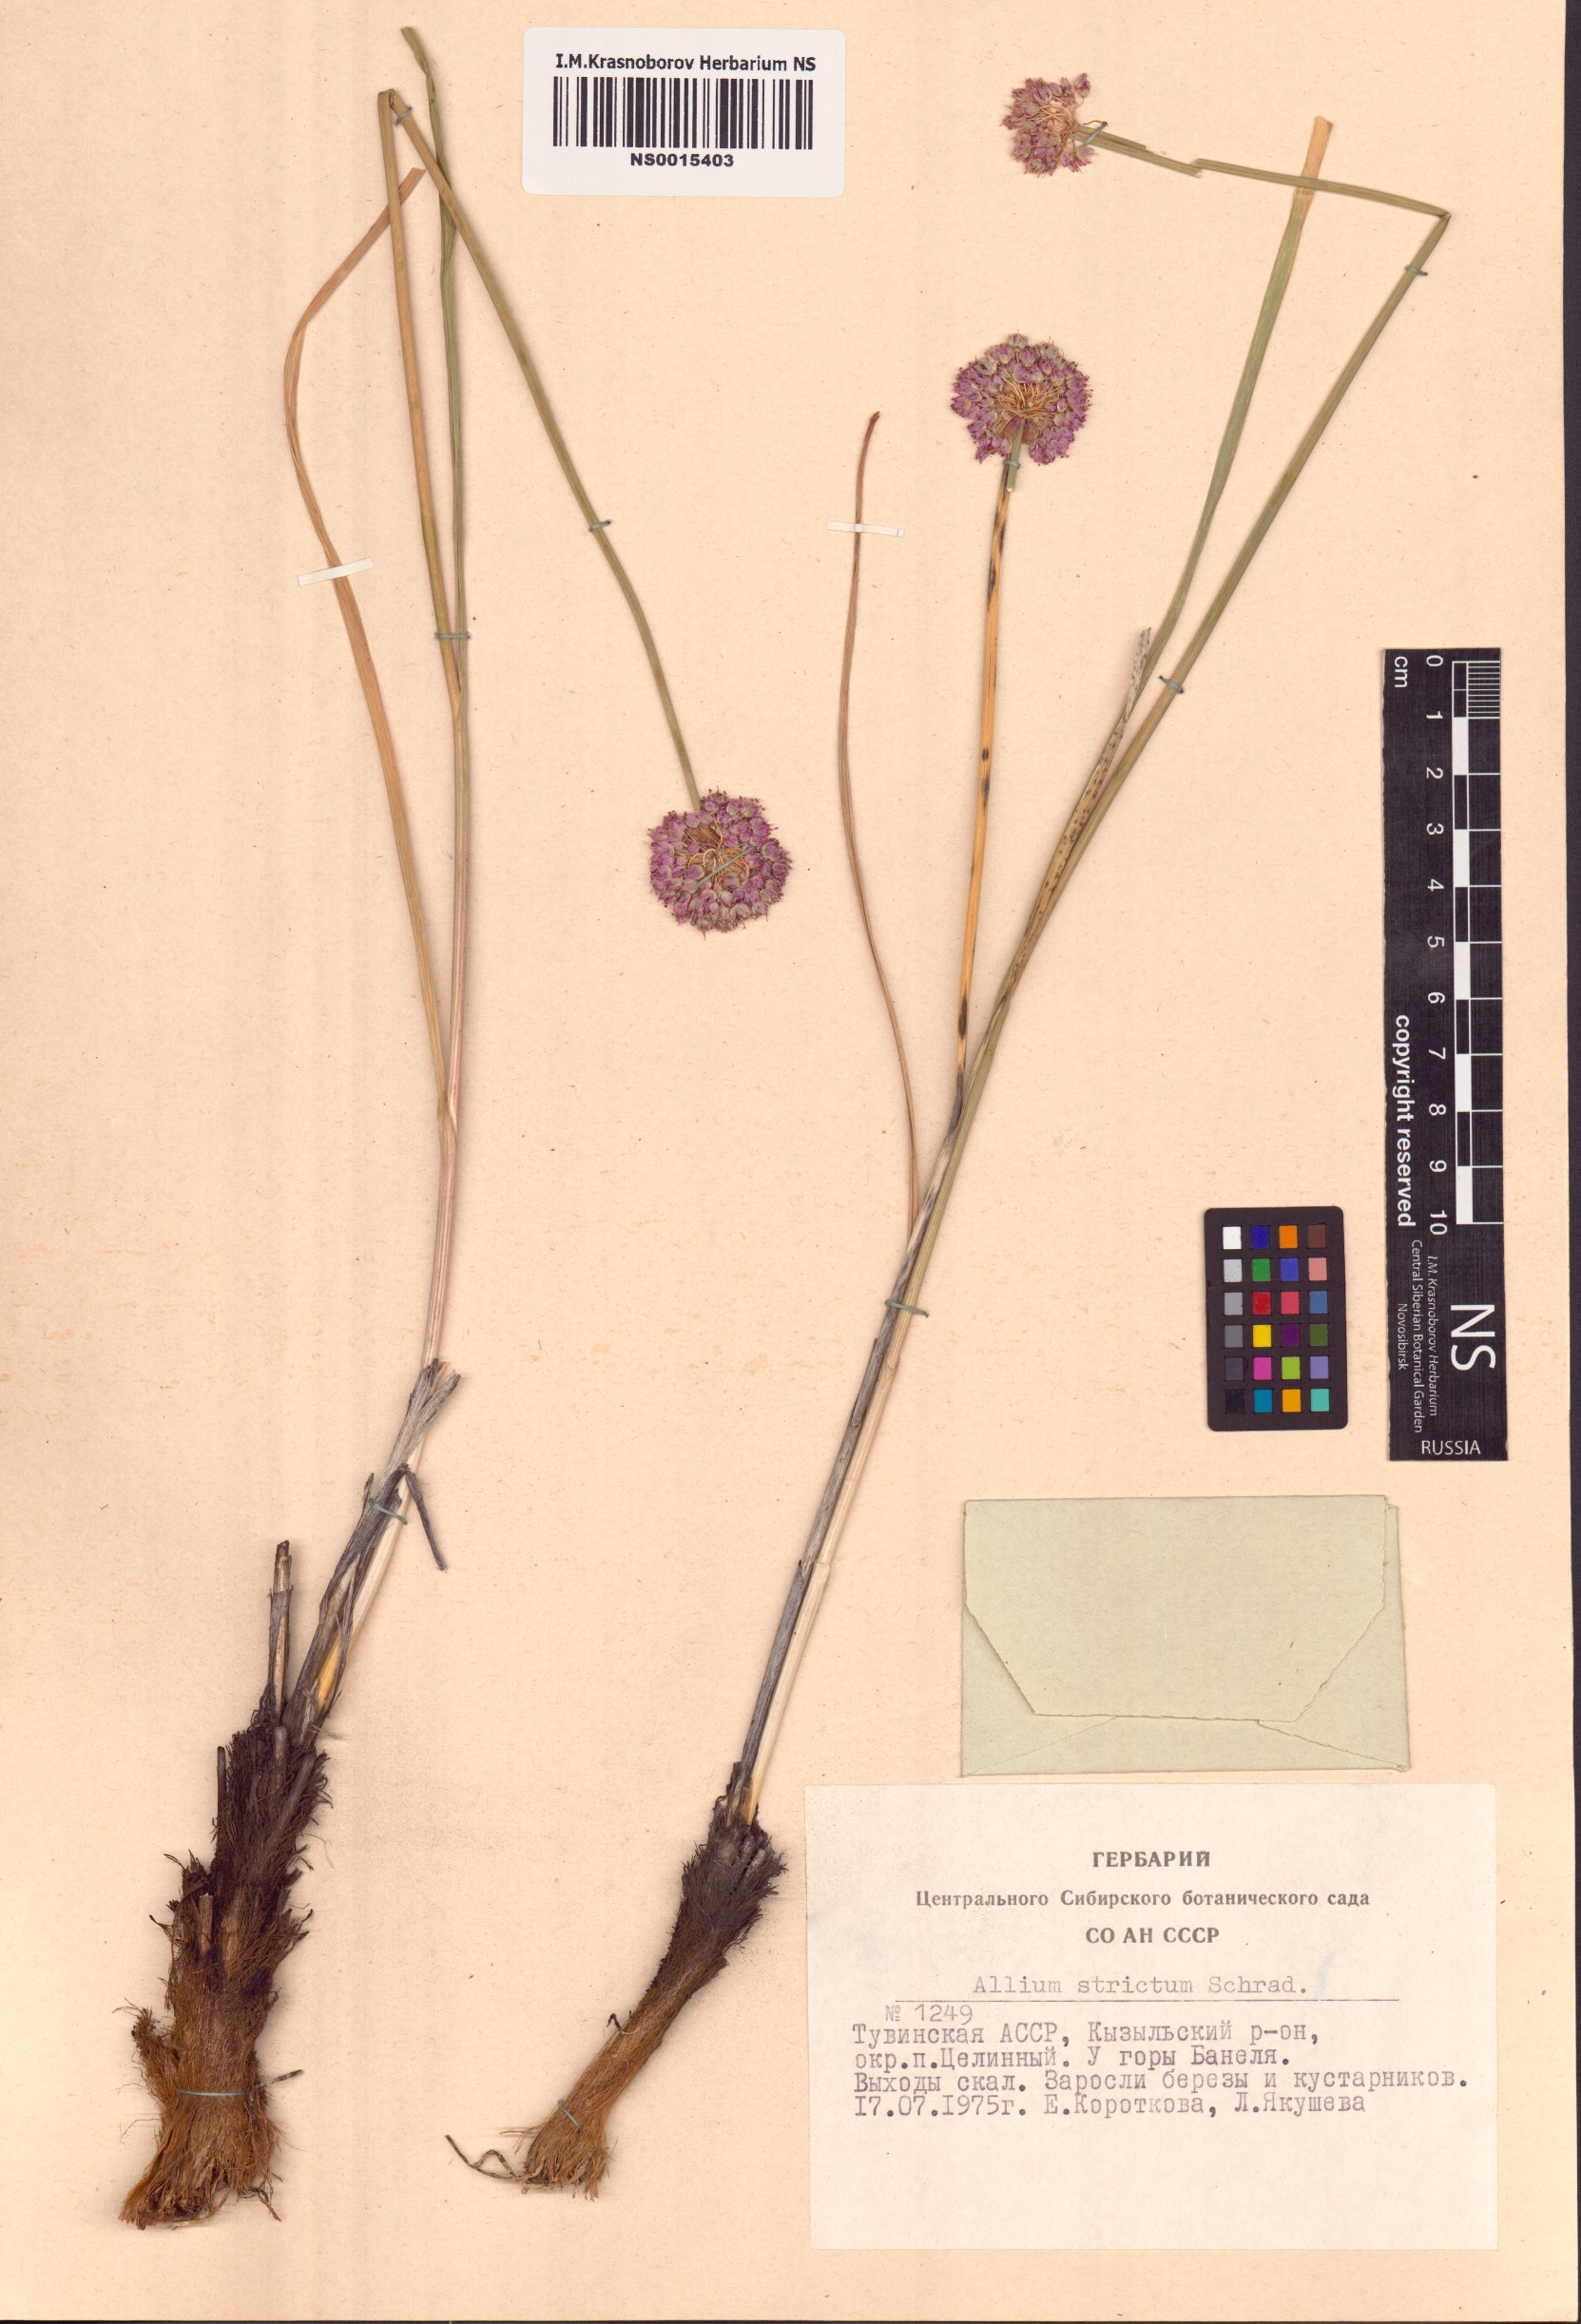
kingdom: Plantae
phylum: Tracheophyta
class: Liliopsida
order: Asparagales
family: Amaryllidaceae
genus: Allium
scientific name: Allium strictum
